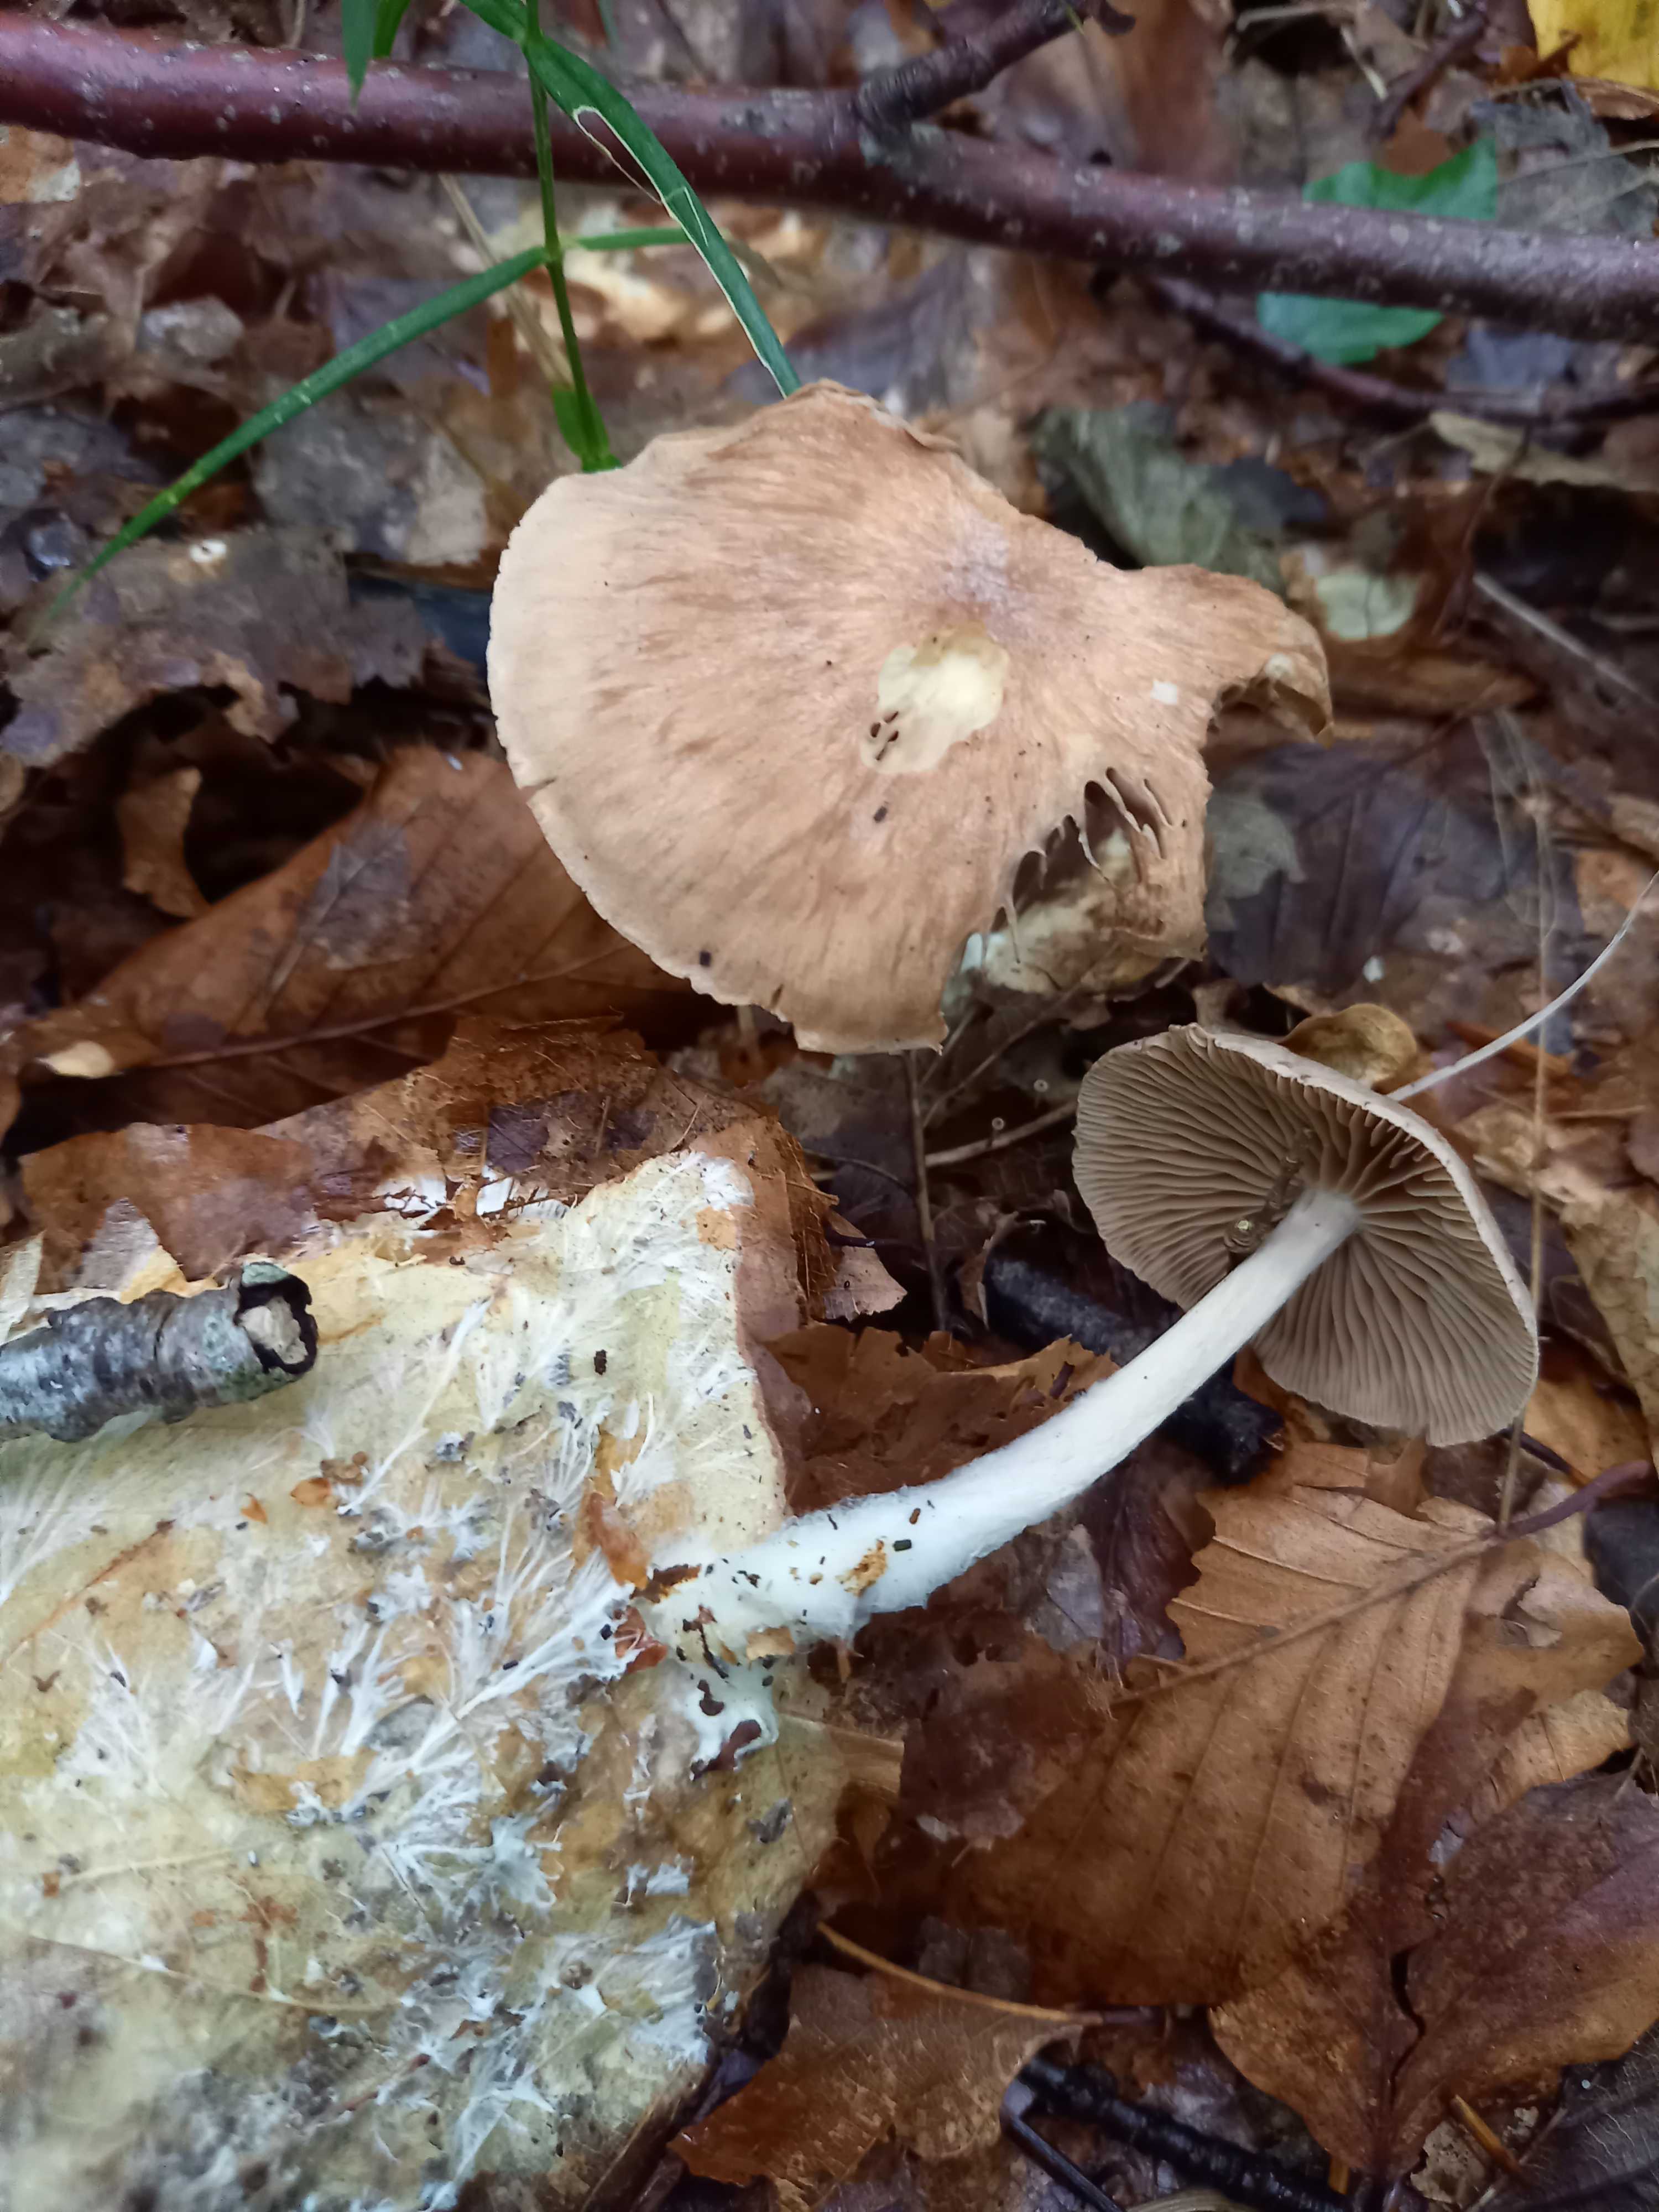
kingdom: Fungi
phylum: Basidiomycota
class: Agaricomycetes
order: Agaricales
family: Omphalotaceae
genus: Collybiopsis
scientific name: Collybiopsis peronata
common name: bestøvlet fladhat
